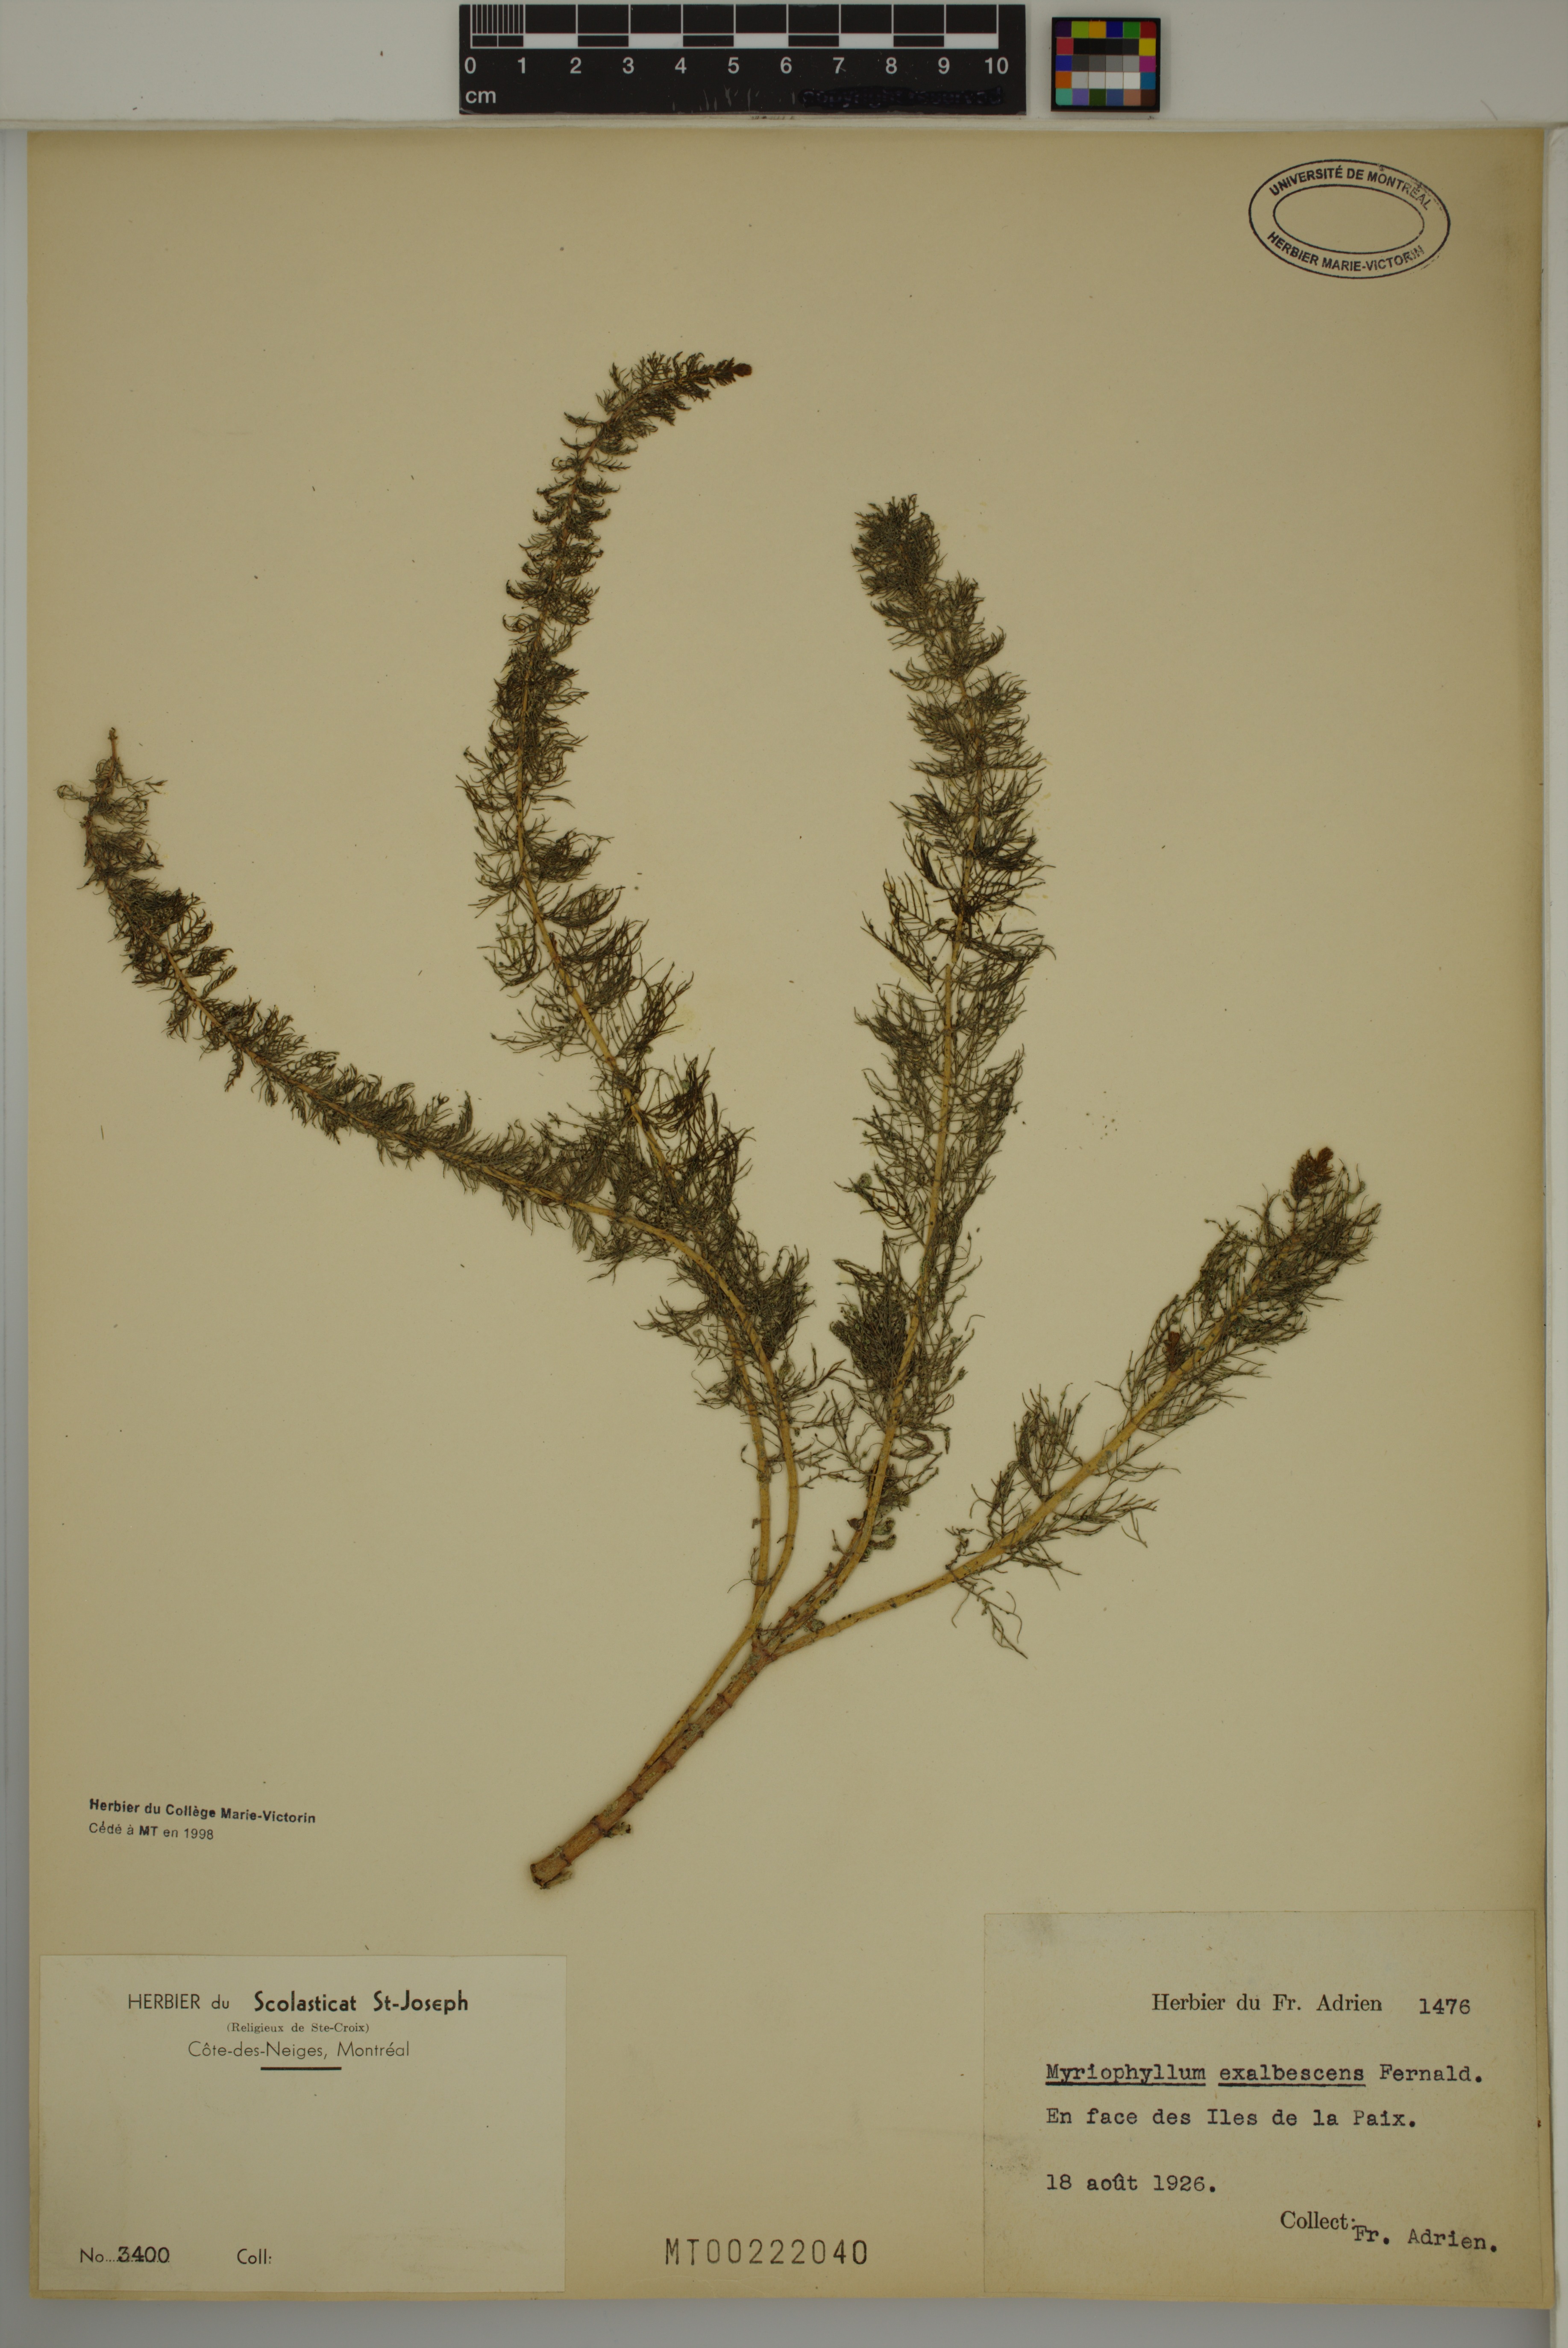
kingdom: Plantae
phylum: Tracheophyta
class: Magnoliopsida
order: Saxifragales
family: Haloragaceae
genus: Myriophyllum
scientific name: Myriophyllum sibiricum
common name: Siberian water-milfoil
